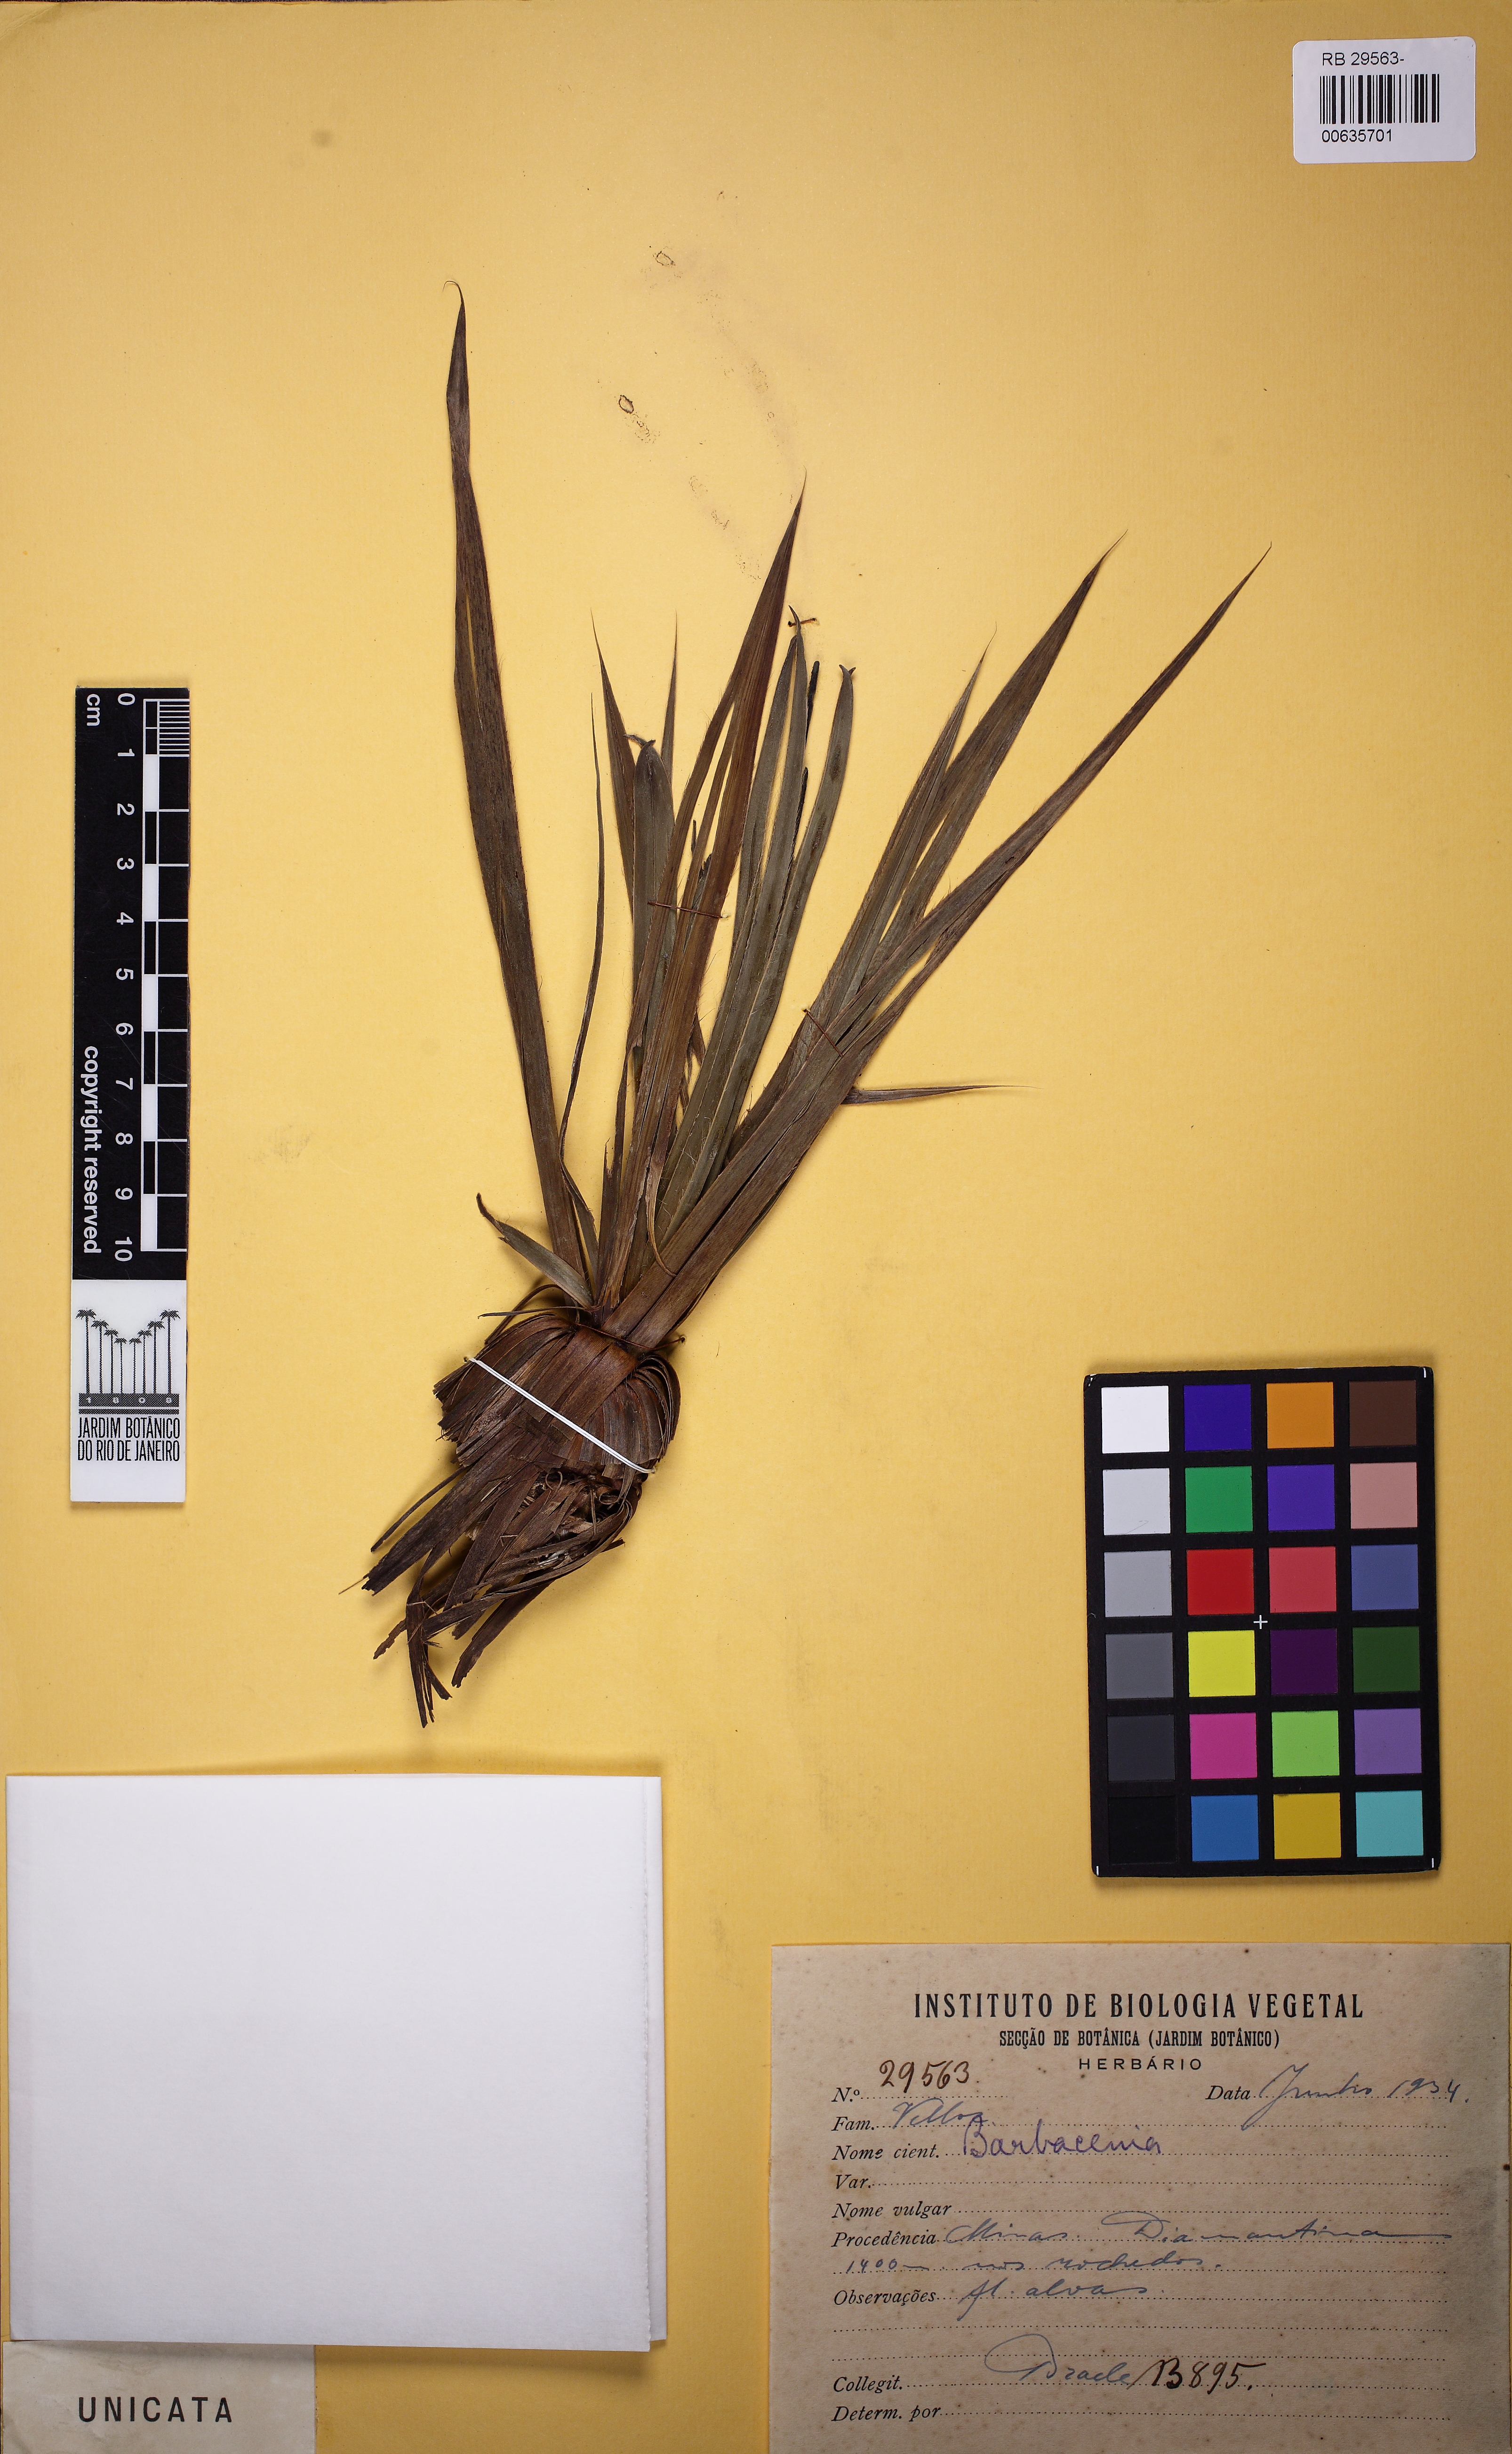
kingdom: Plantae
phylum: Tracheophyta
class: Liliopsida
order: Pandanales
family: Velloziaceae
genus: Barbacenia
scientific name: Barbacenia
